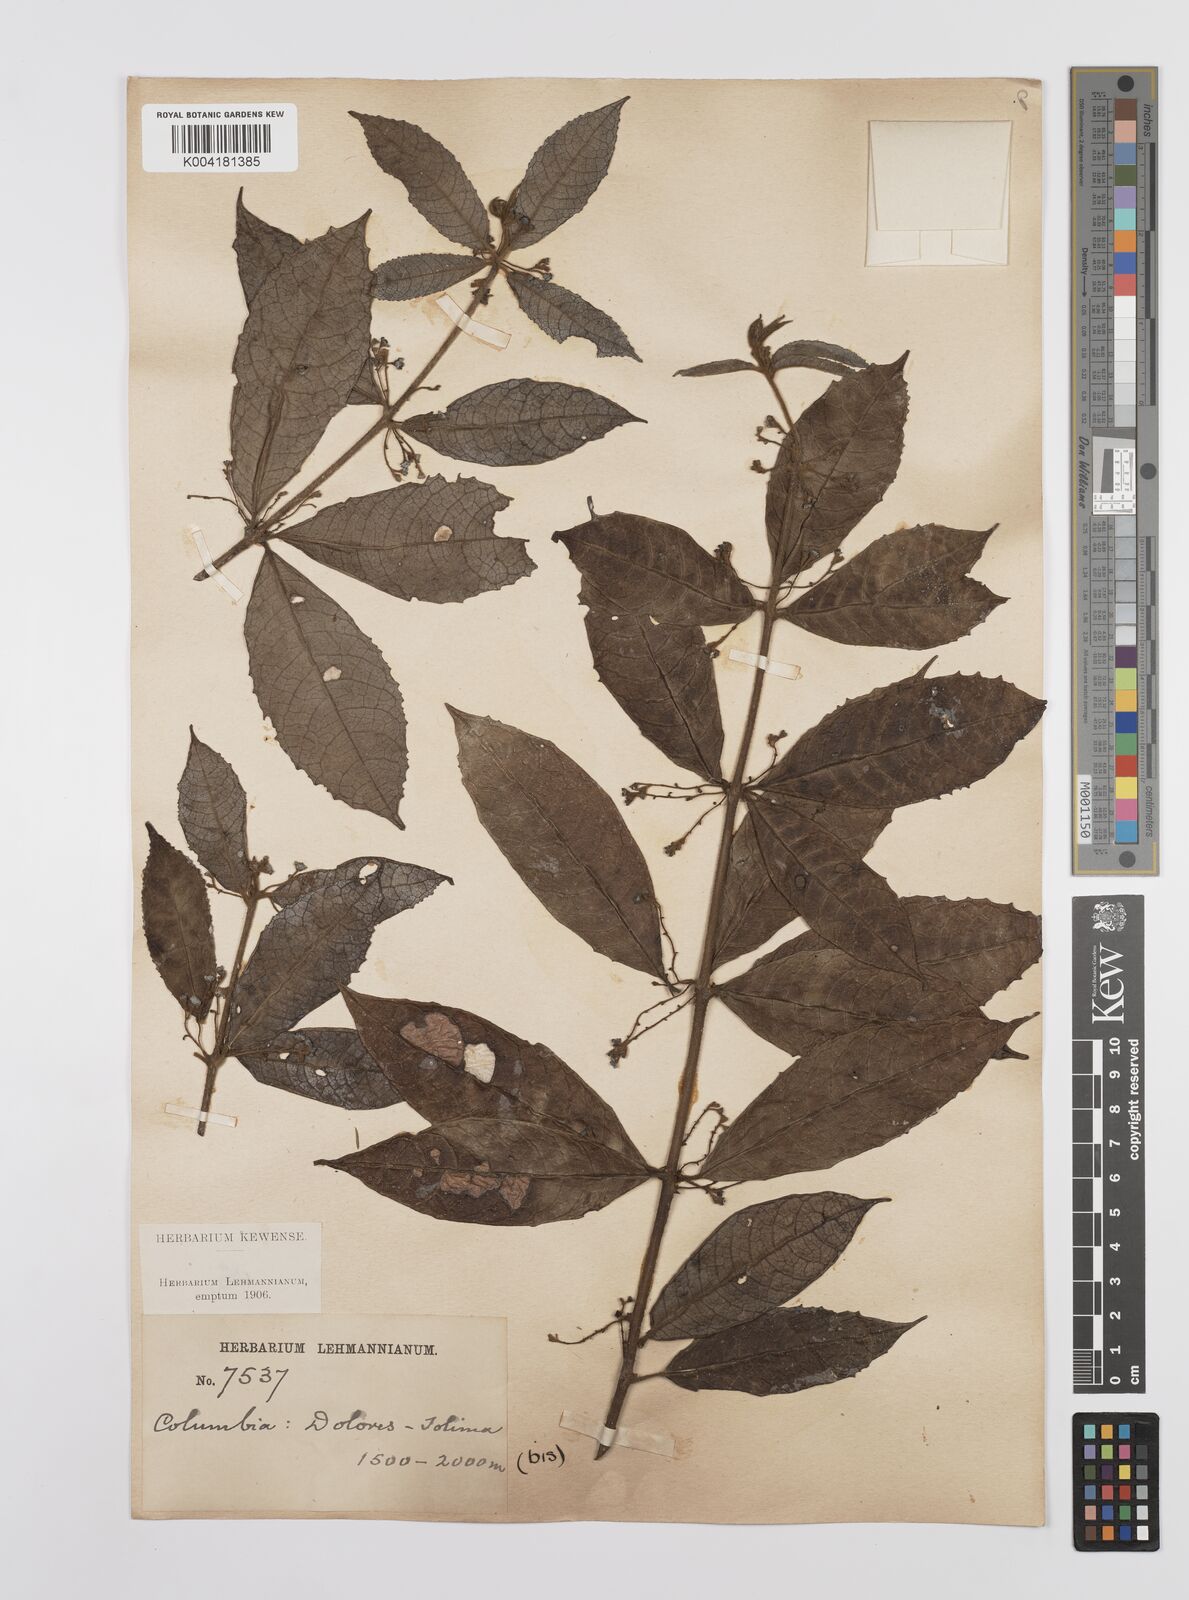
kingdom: Plantae
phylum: Tracheophyta
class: Magnoliopsida
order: Laurales
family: Siparunaceae
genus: Siparuna
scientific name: Siparuna mutisii
